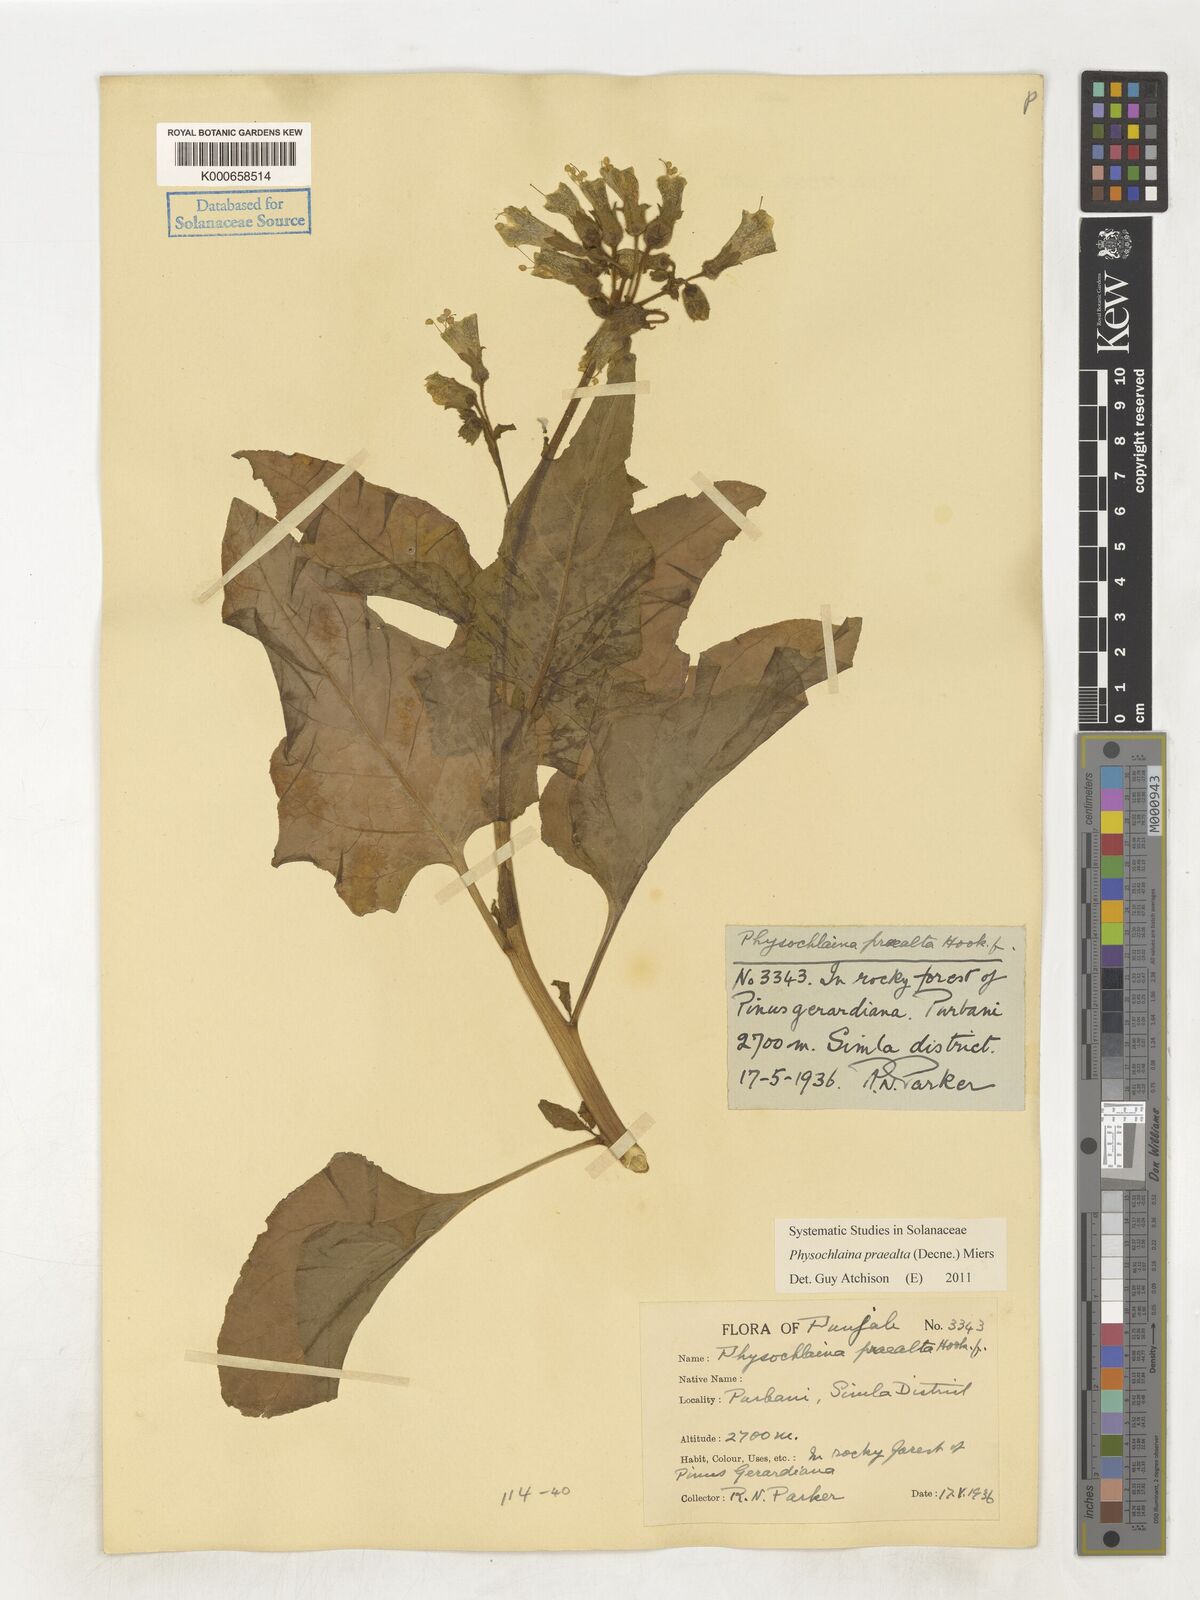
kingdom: Plantae
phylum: Tracheophyta
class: Magnoliopsida
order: Solanales
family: Solanaceae
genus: Physochlaina
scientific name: Physochlaina praealta
